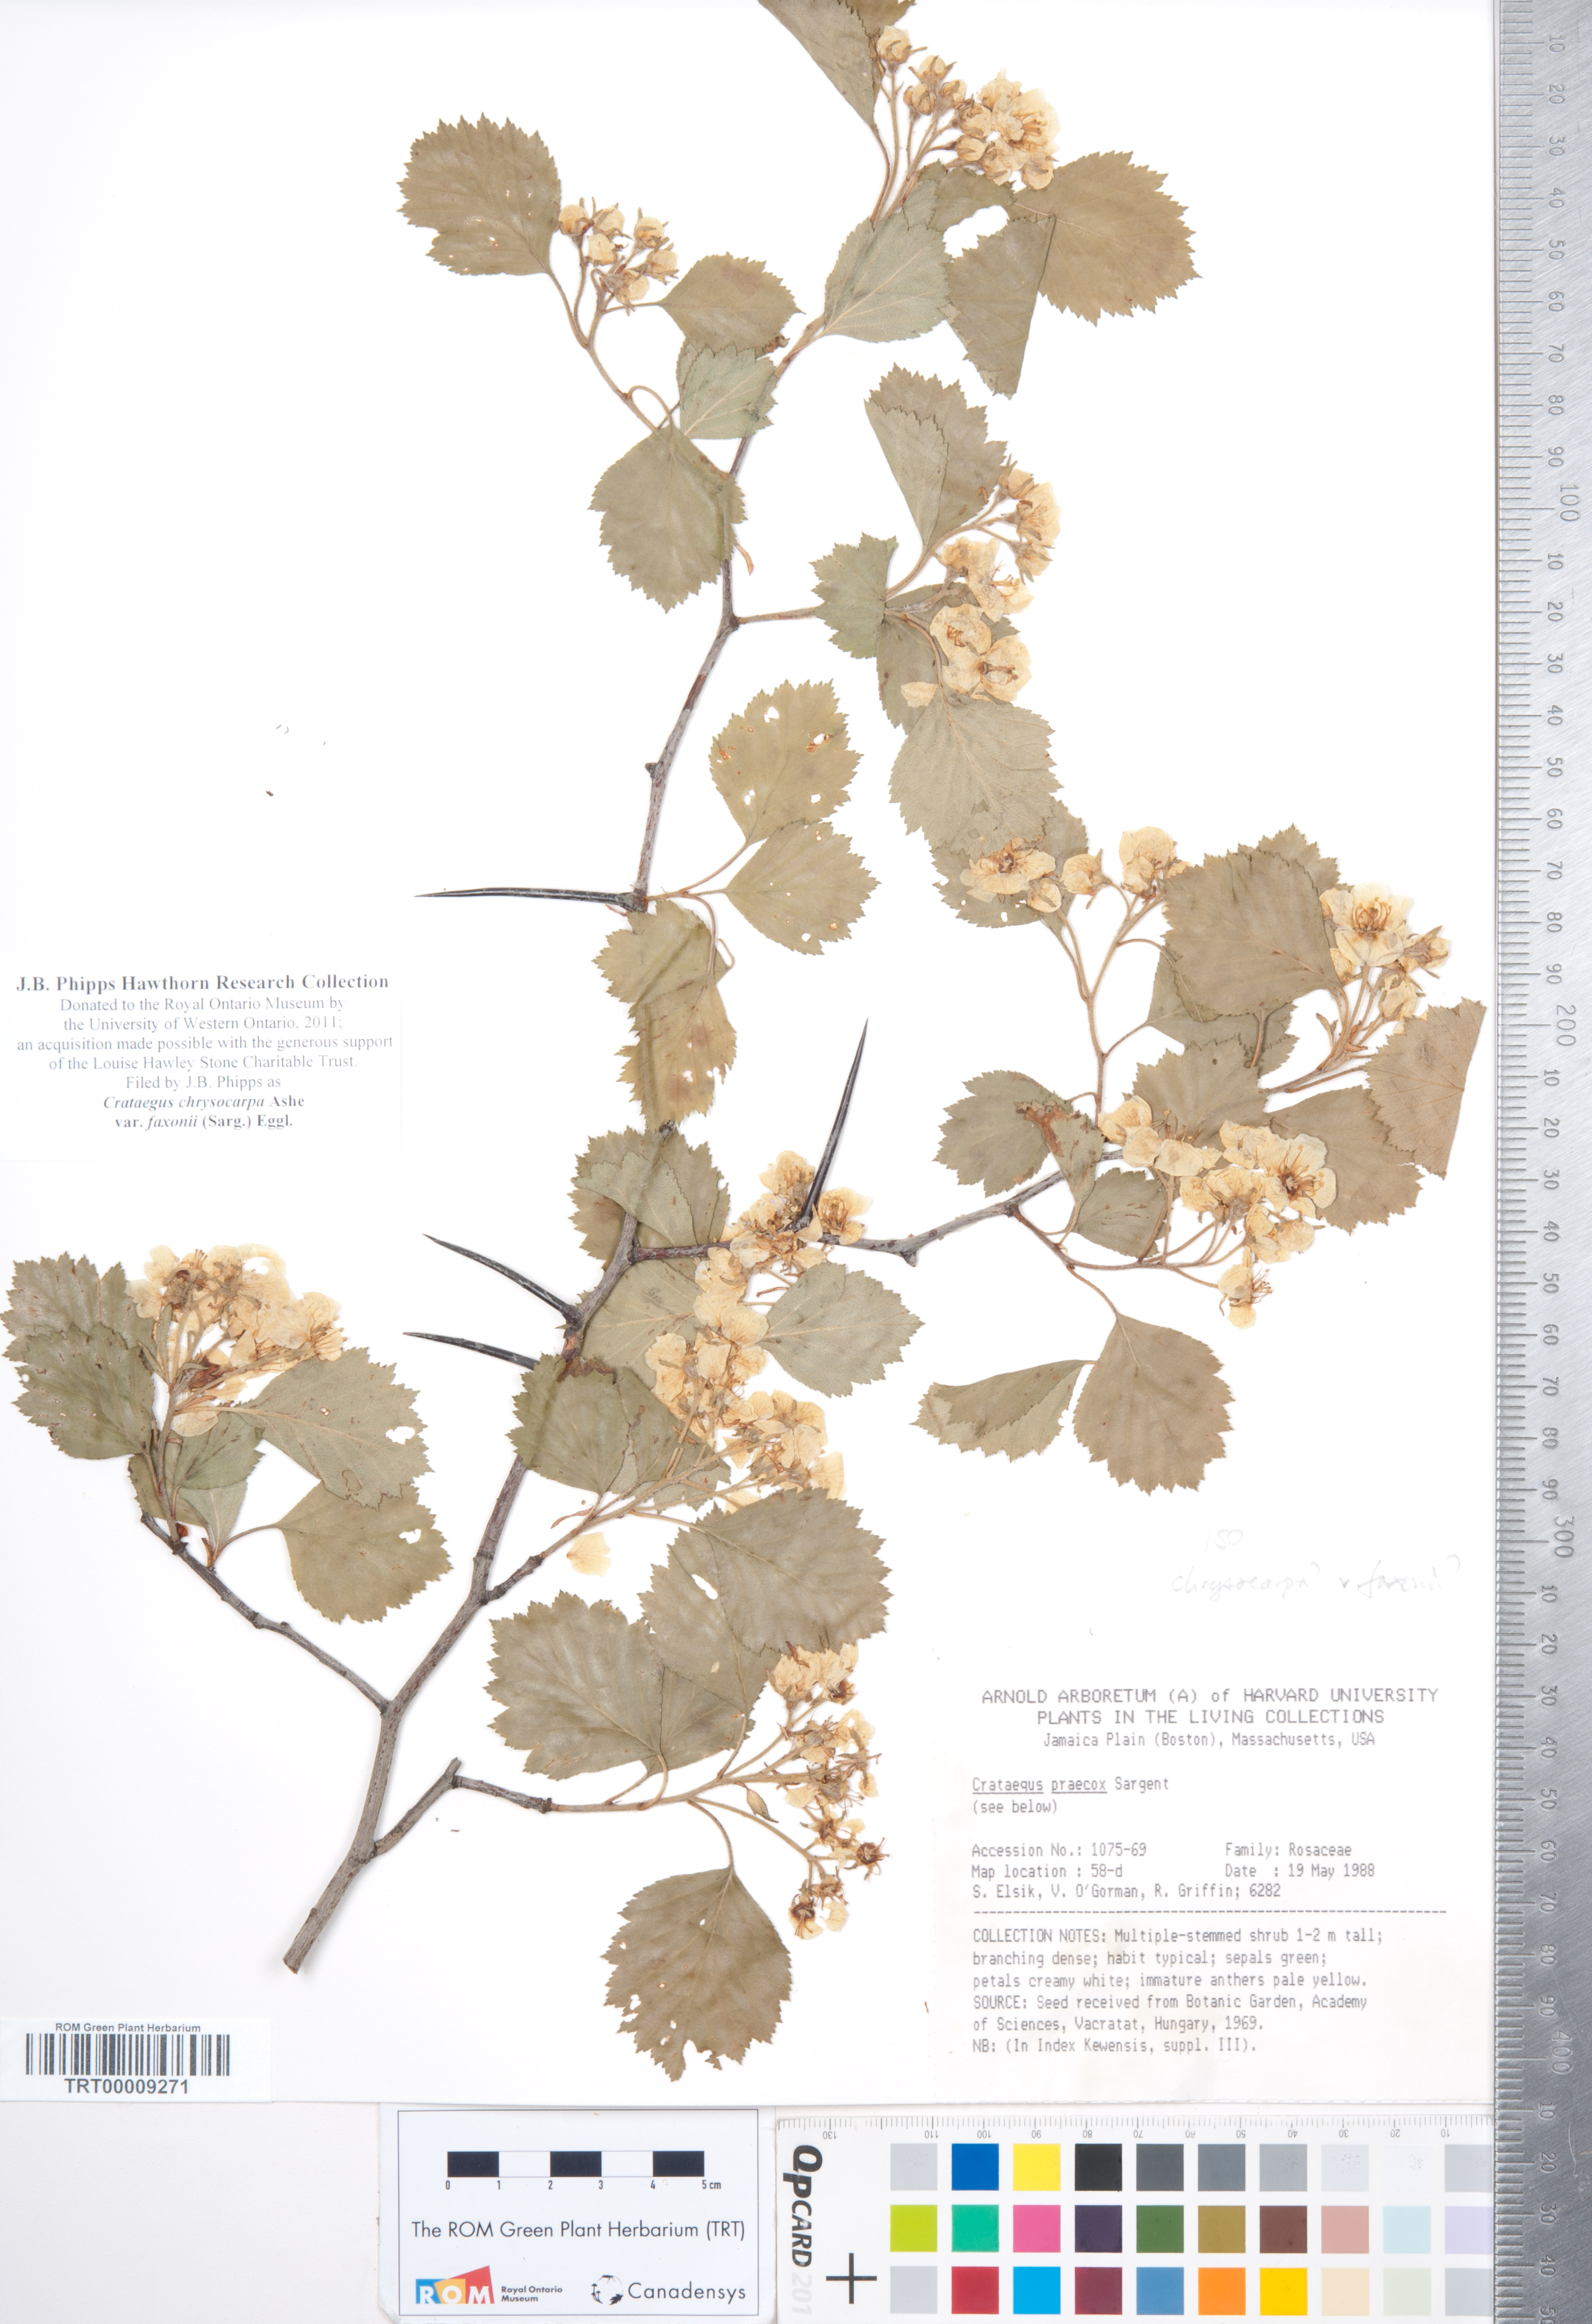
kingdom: Plantae
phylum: Tracheophyta
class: Magnoliopsida
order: Rosales
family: Rosaceae
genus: Crataegus
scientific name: Crataegus chrysocarpa
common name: Fire-berry hawthorn
